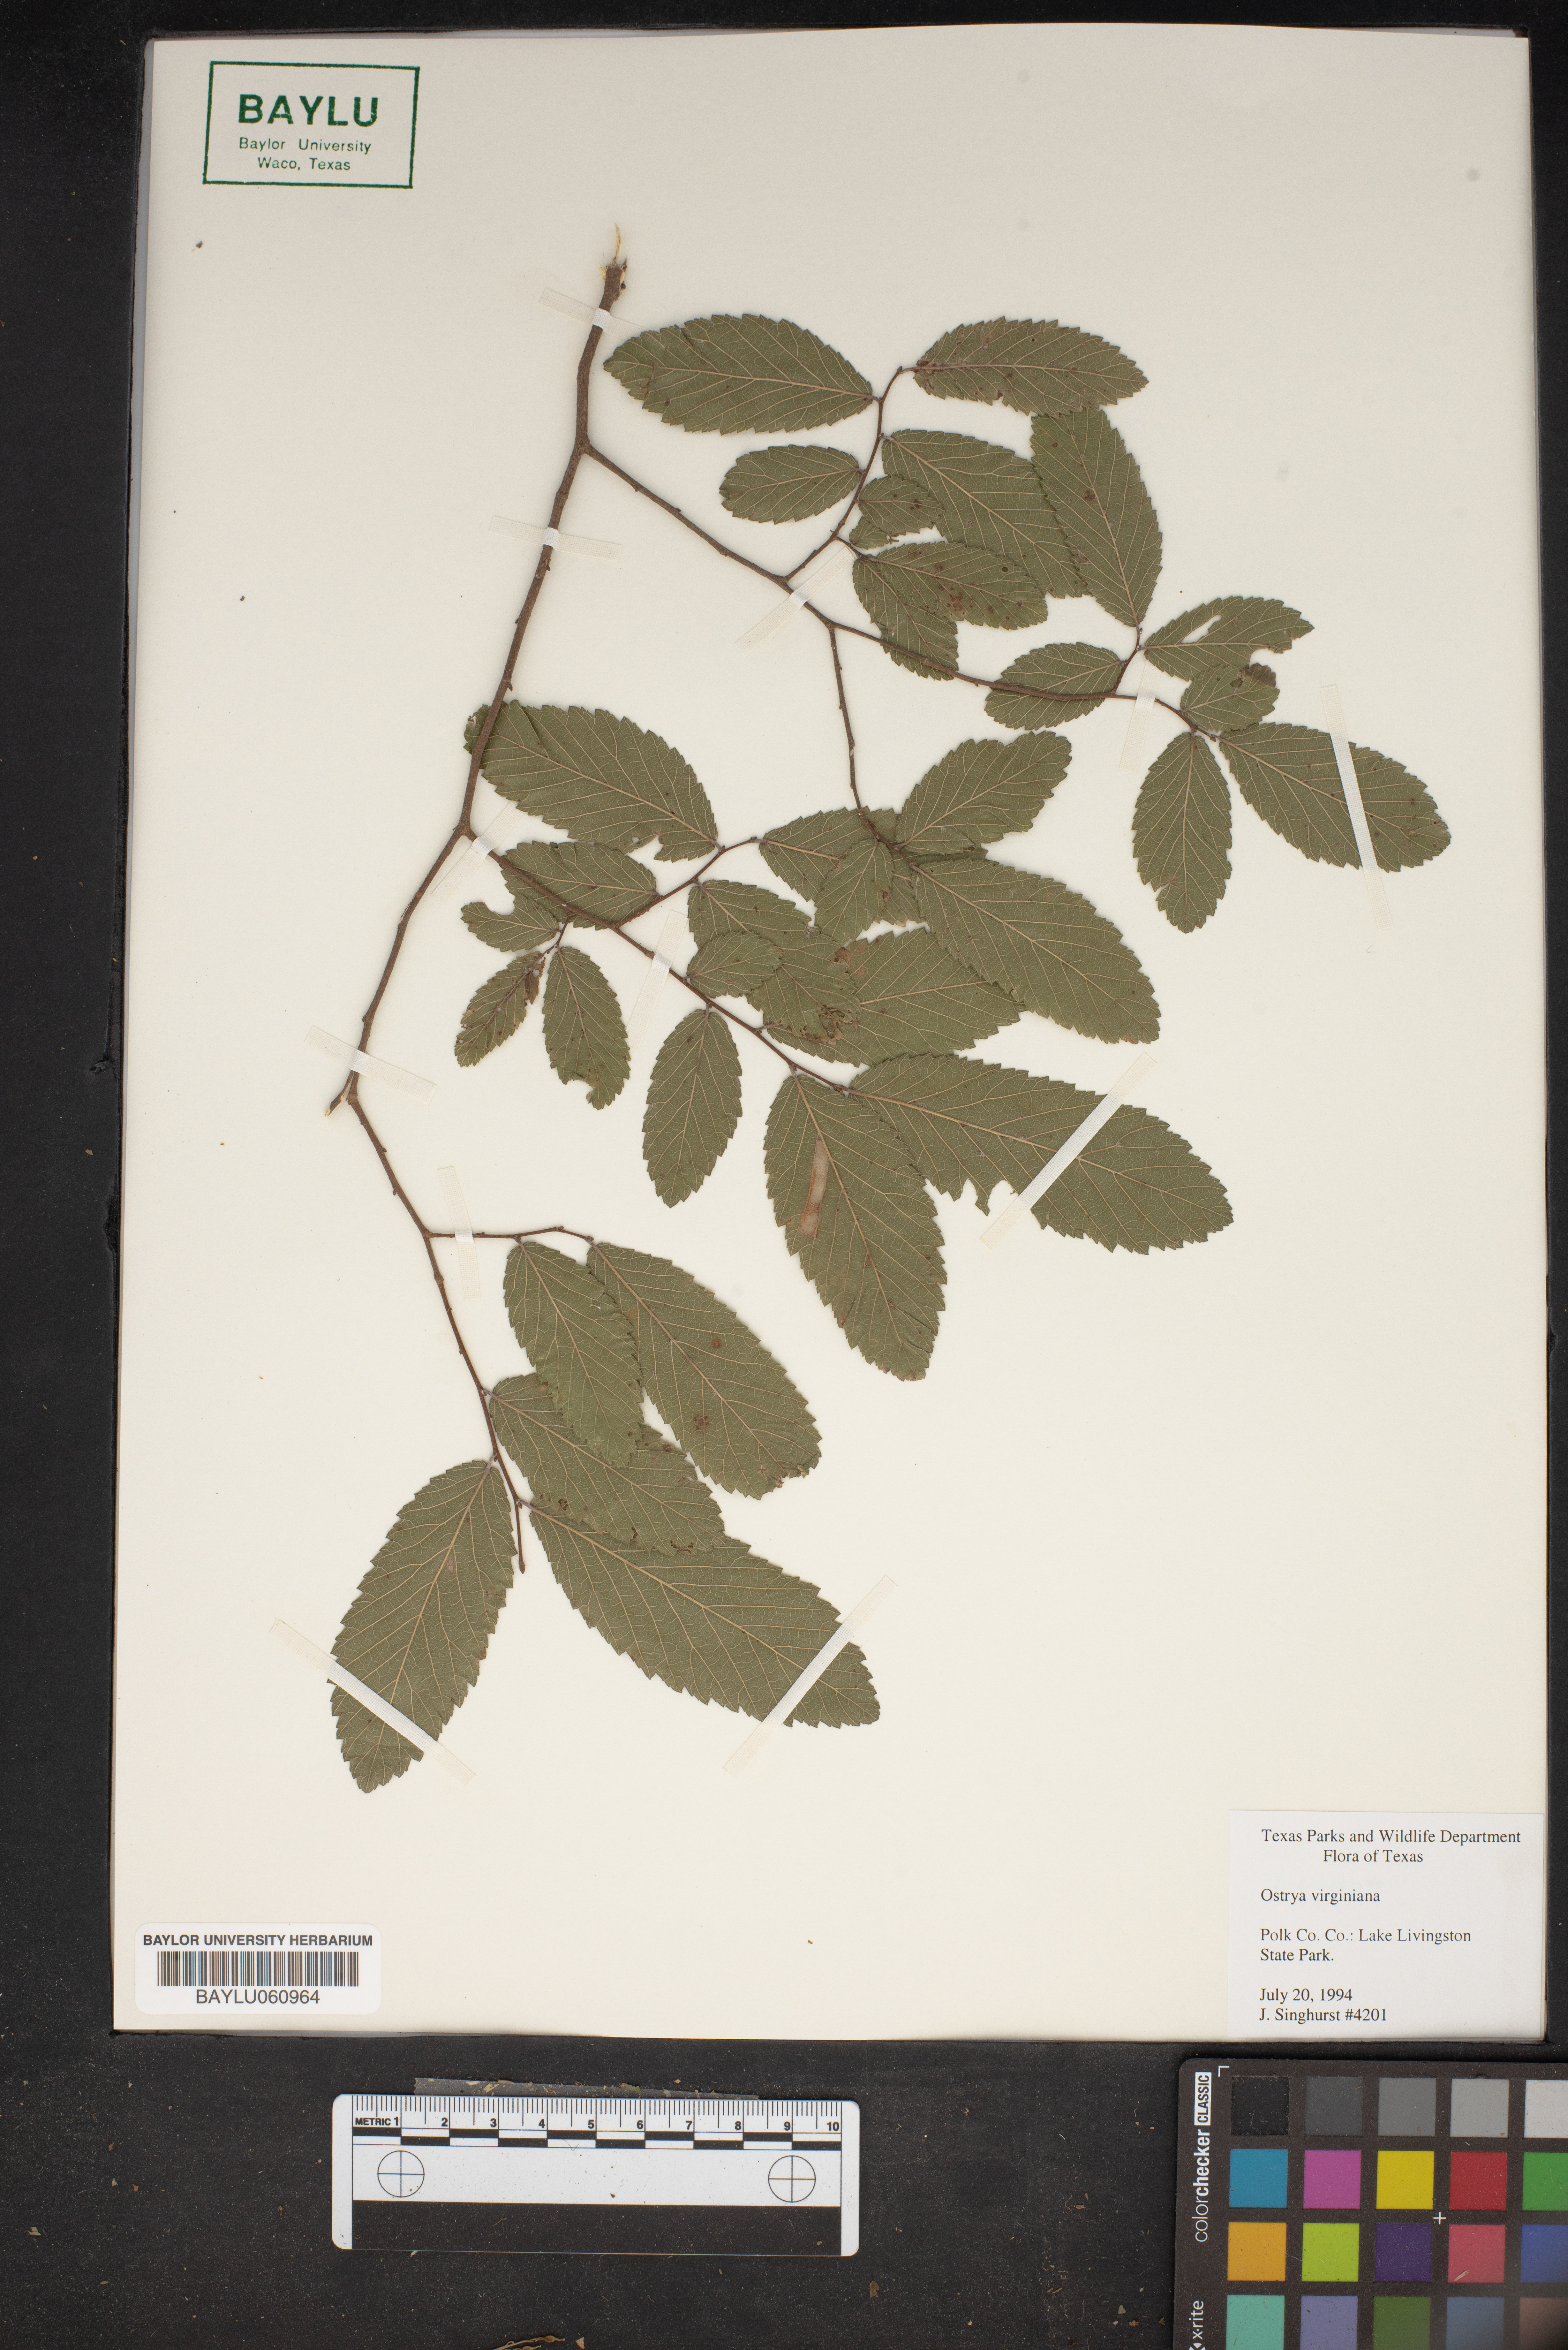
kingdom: Plantae
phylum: Tracheophyta
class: Magnoliopsida
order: Fagales
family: Betulaceae
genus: Ostrya
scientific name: Ostrya virginiana
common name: Ironwood
